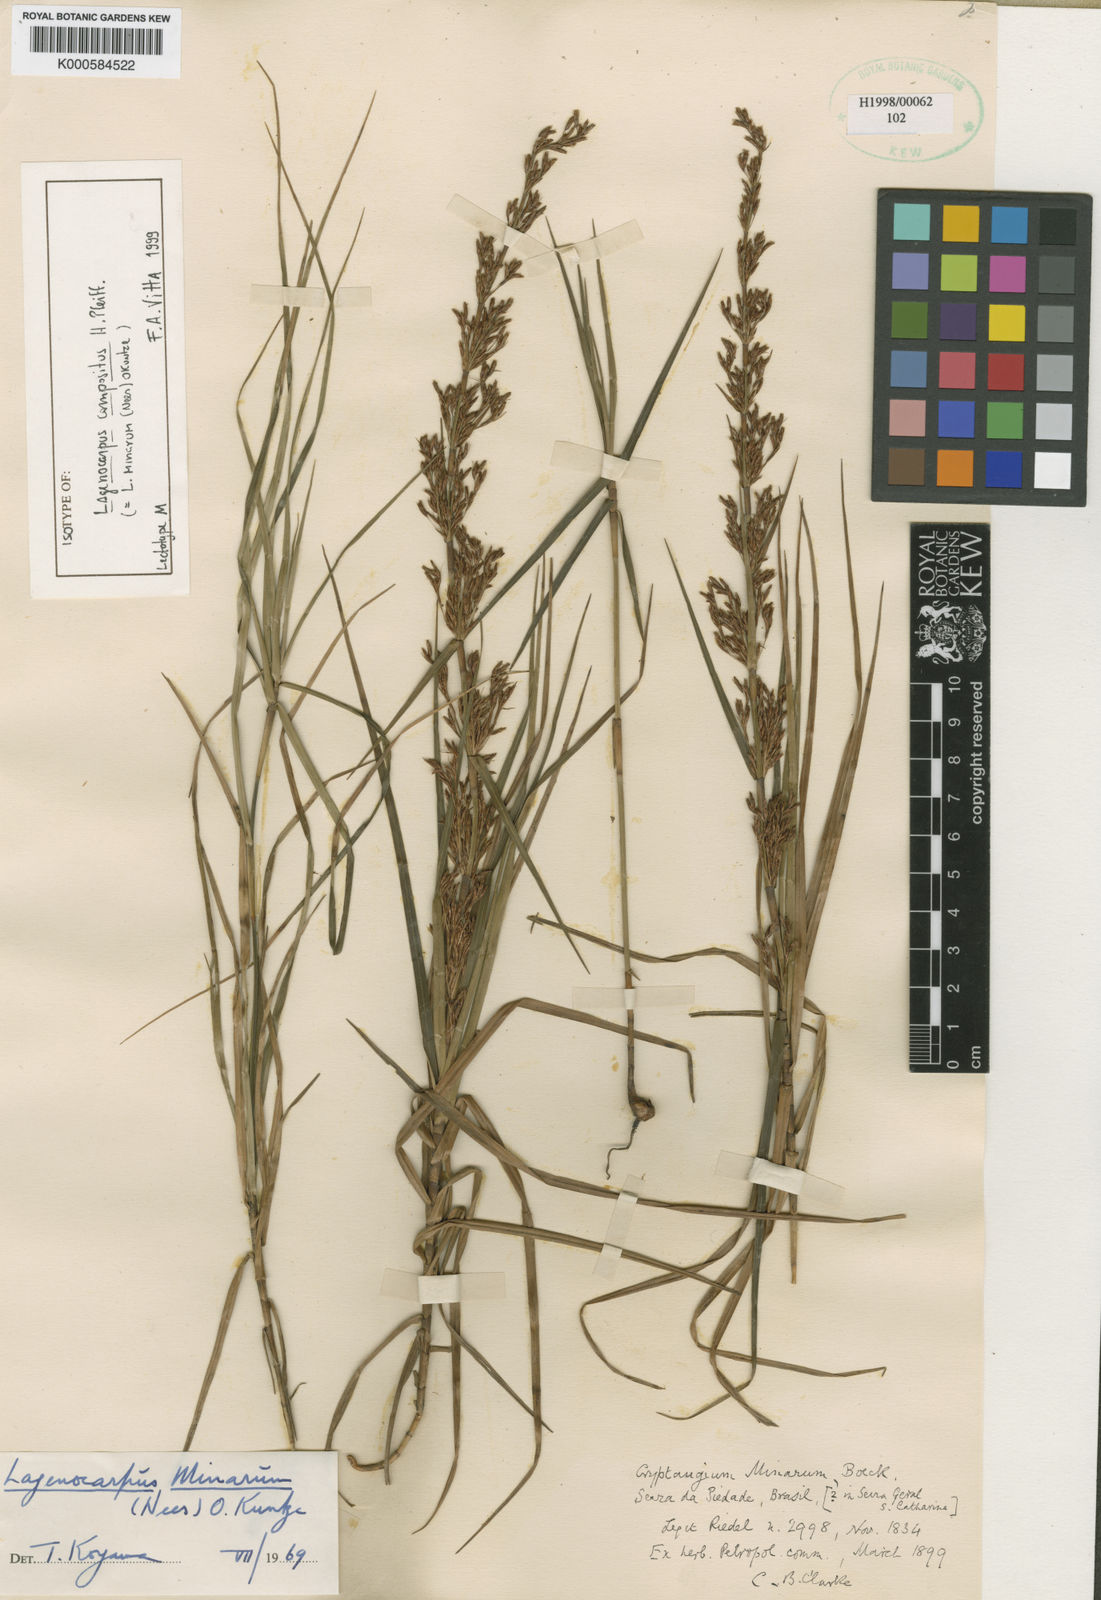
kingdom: Plantae
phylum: Tracheophyta
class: Liliopsida
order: Poales
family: Cyperaceae
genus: Krenakia
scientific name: Krenakia minarum
